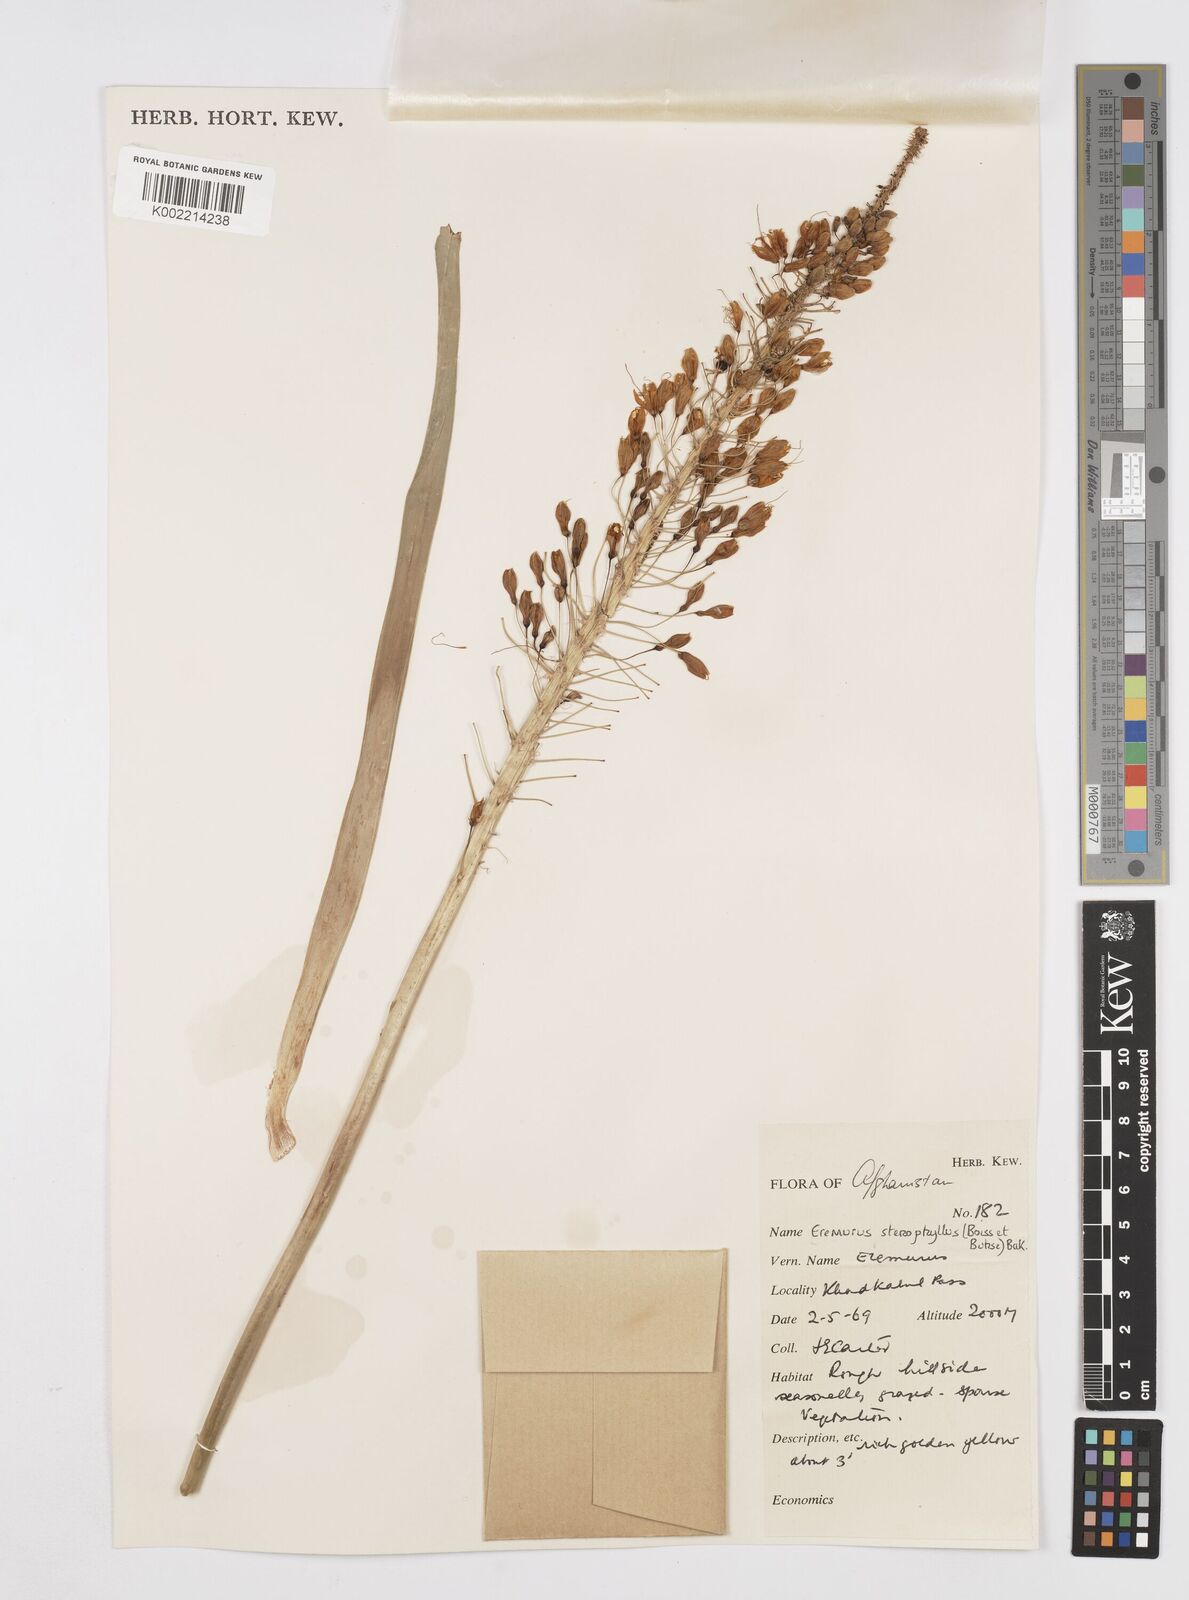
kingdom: Plantae
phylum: Tracheophyta
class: Liliopsida
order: Asparagales
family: Asphodelaceae
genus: Eremurus
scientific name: Eremurus stenophyllus
